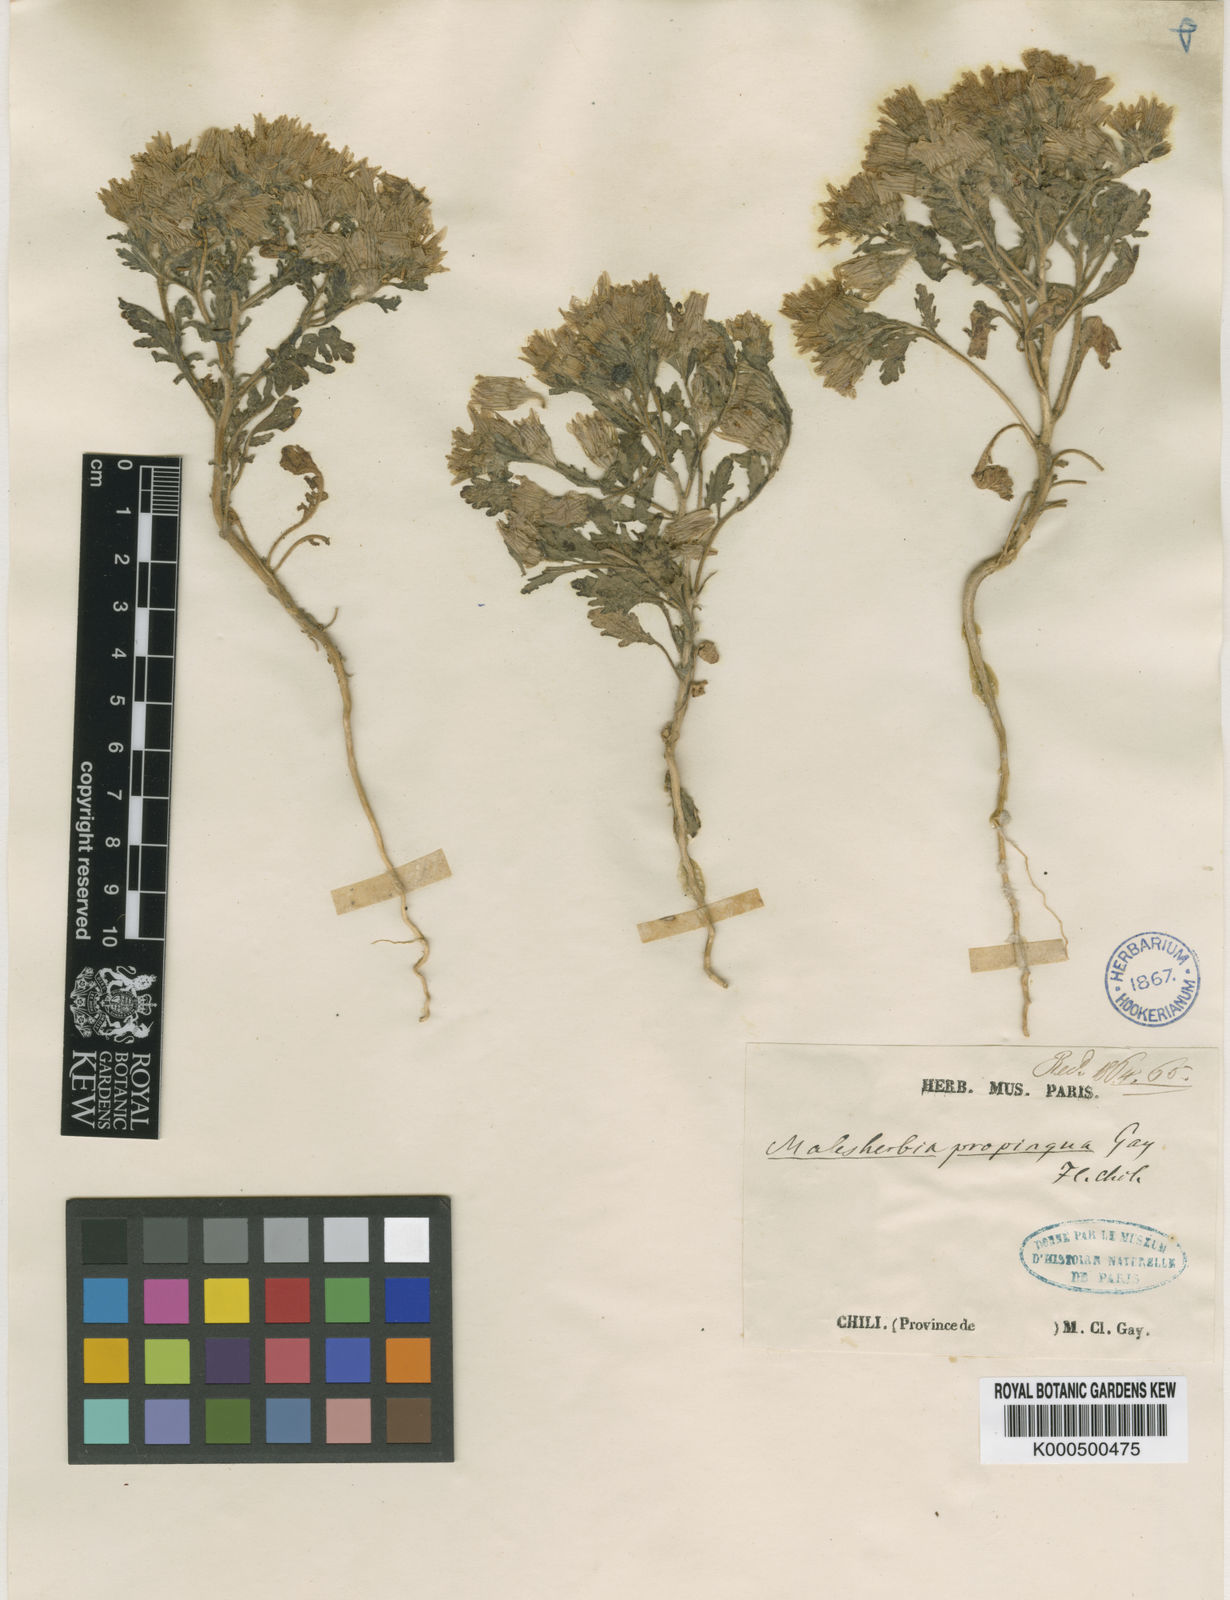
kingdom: Plantae
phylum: Tracheophyta
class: Magnoliopsida
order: Malpighiales
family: Malesherbiaceae
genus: Malesherbia
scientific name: Malesherbia humilis
